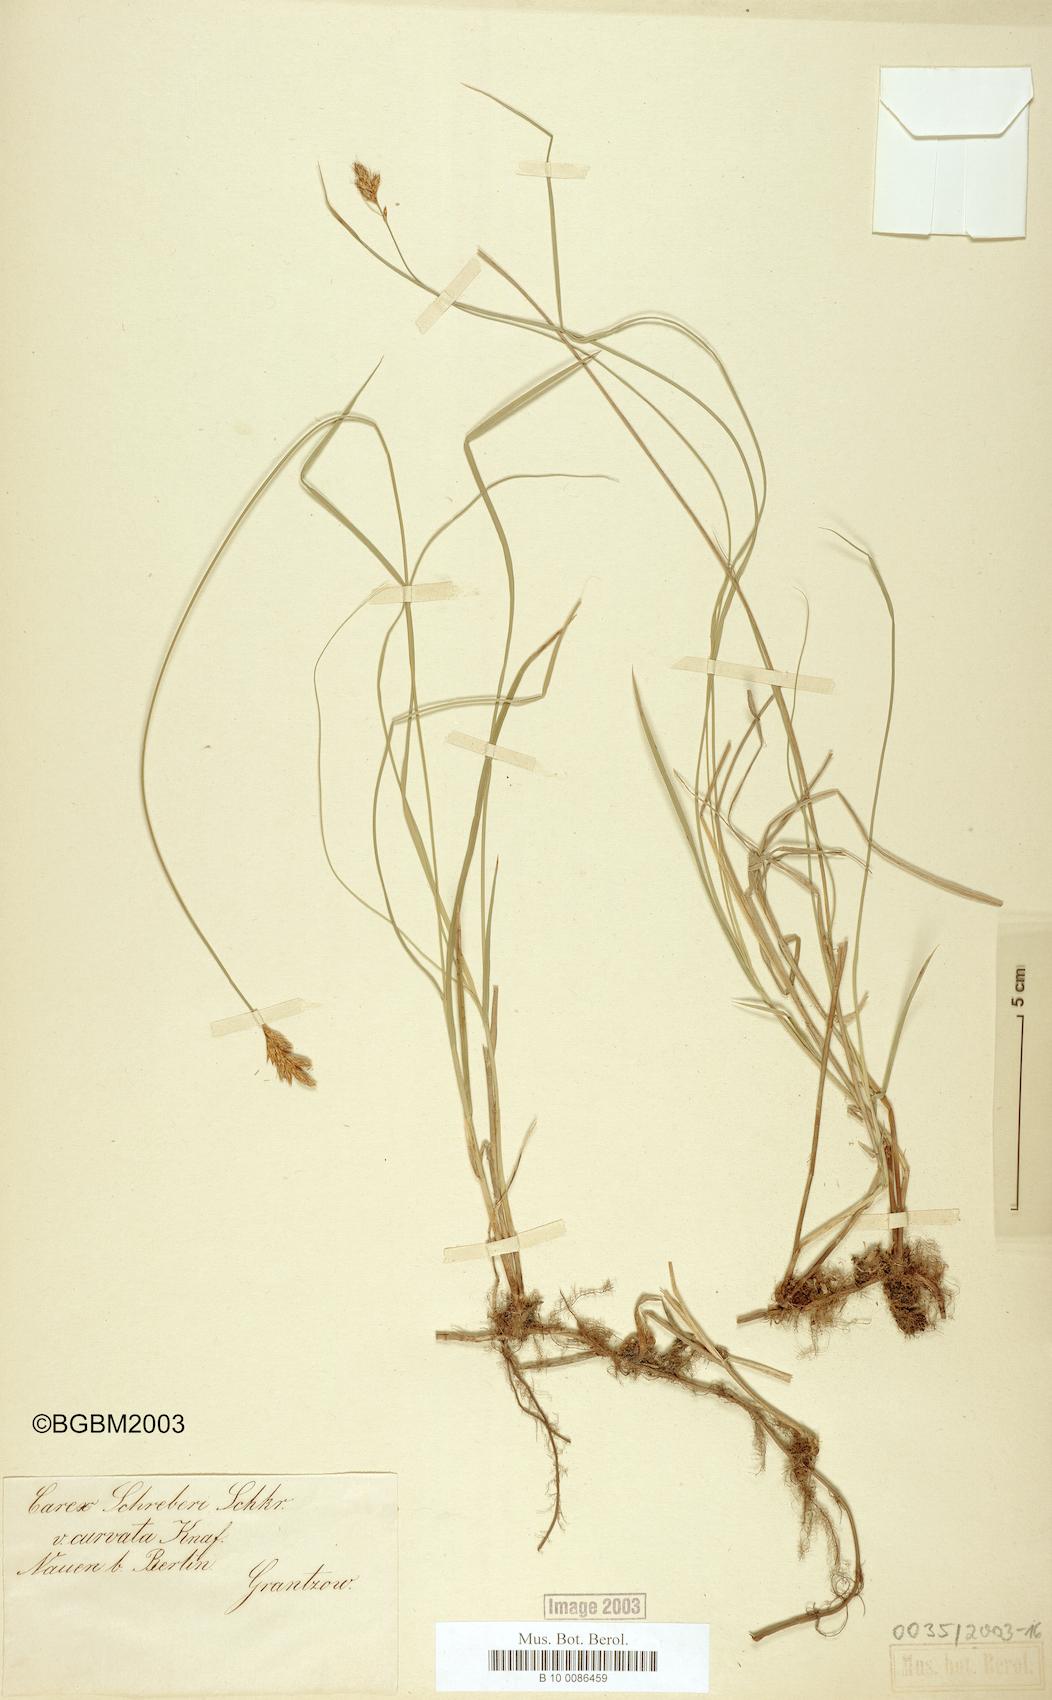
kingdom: Plantae
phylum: Tracheophyta
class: Liliopsida
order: Poales
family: Cyperaceae
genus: Carex
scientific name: Carex curvata
